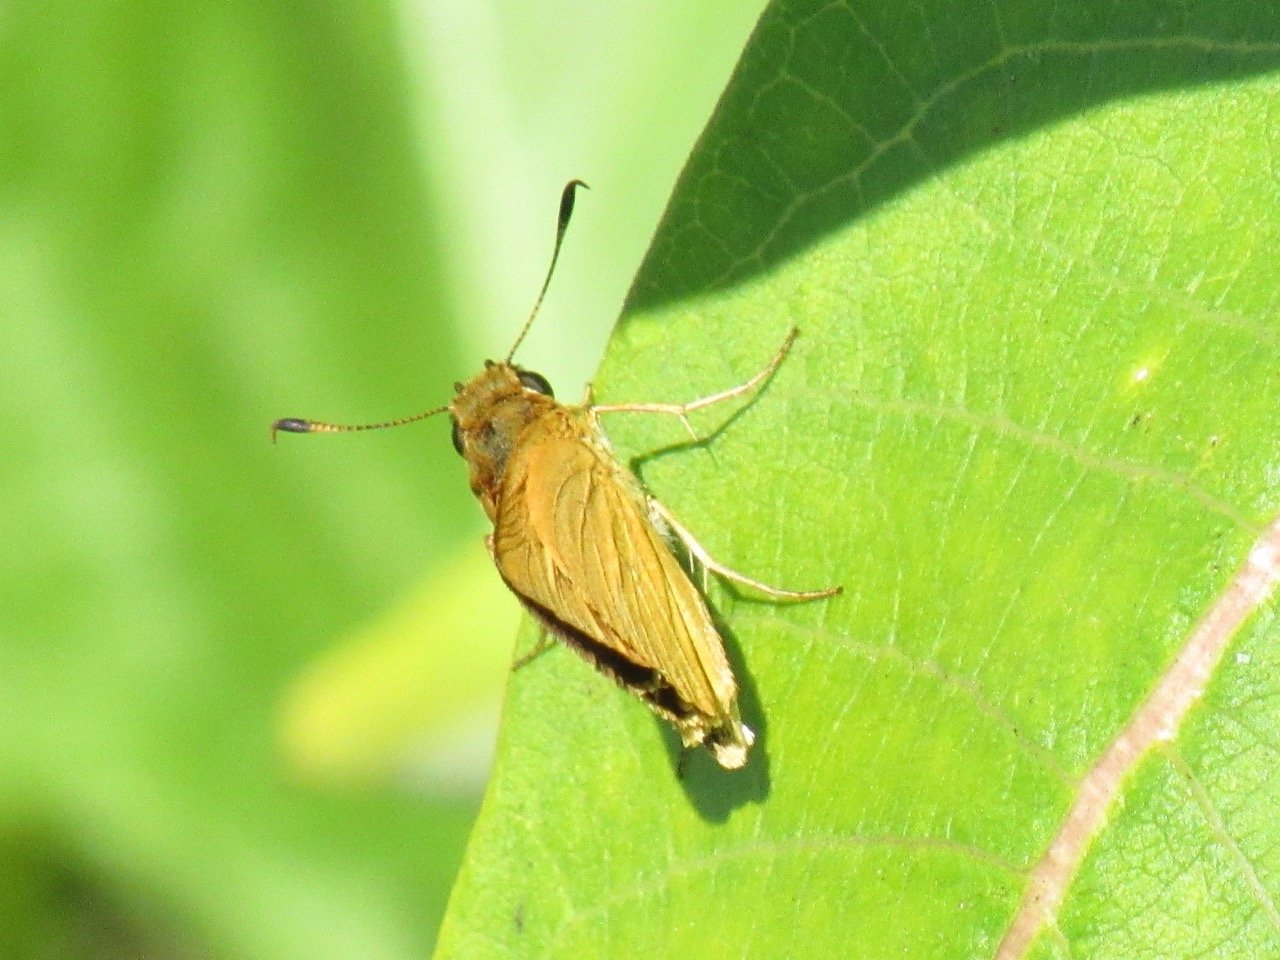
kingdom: Animalia
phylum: Arthropoda
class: Insecta
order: Lepidoptera
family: Hesperiidae
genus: Atrytone
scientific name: Atrytone delaware
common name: Delaware Skipper
